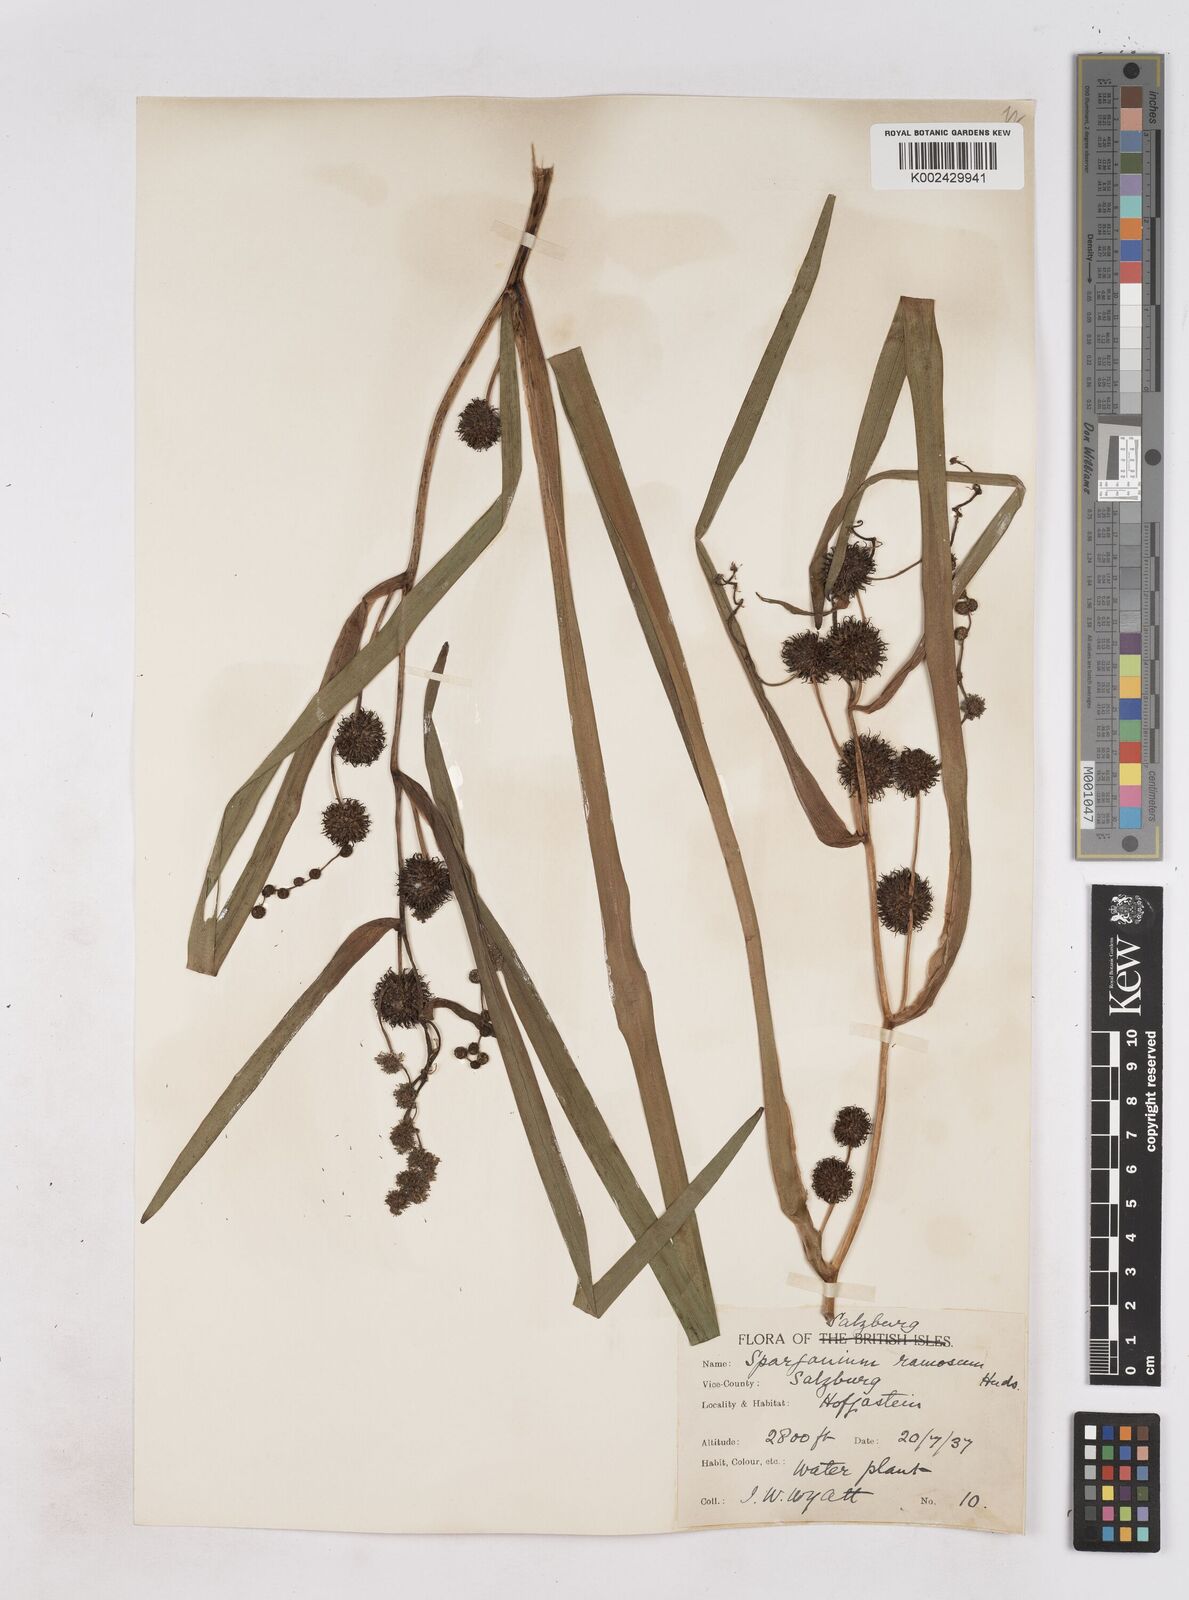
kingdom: Plantae
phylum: Tracheophyta
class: Liliopsida
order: Poales
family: Typhaceae
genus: Sparganium
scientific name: Sparganium erectum
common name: Branched bur-reed
